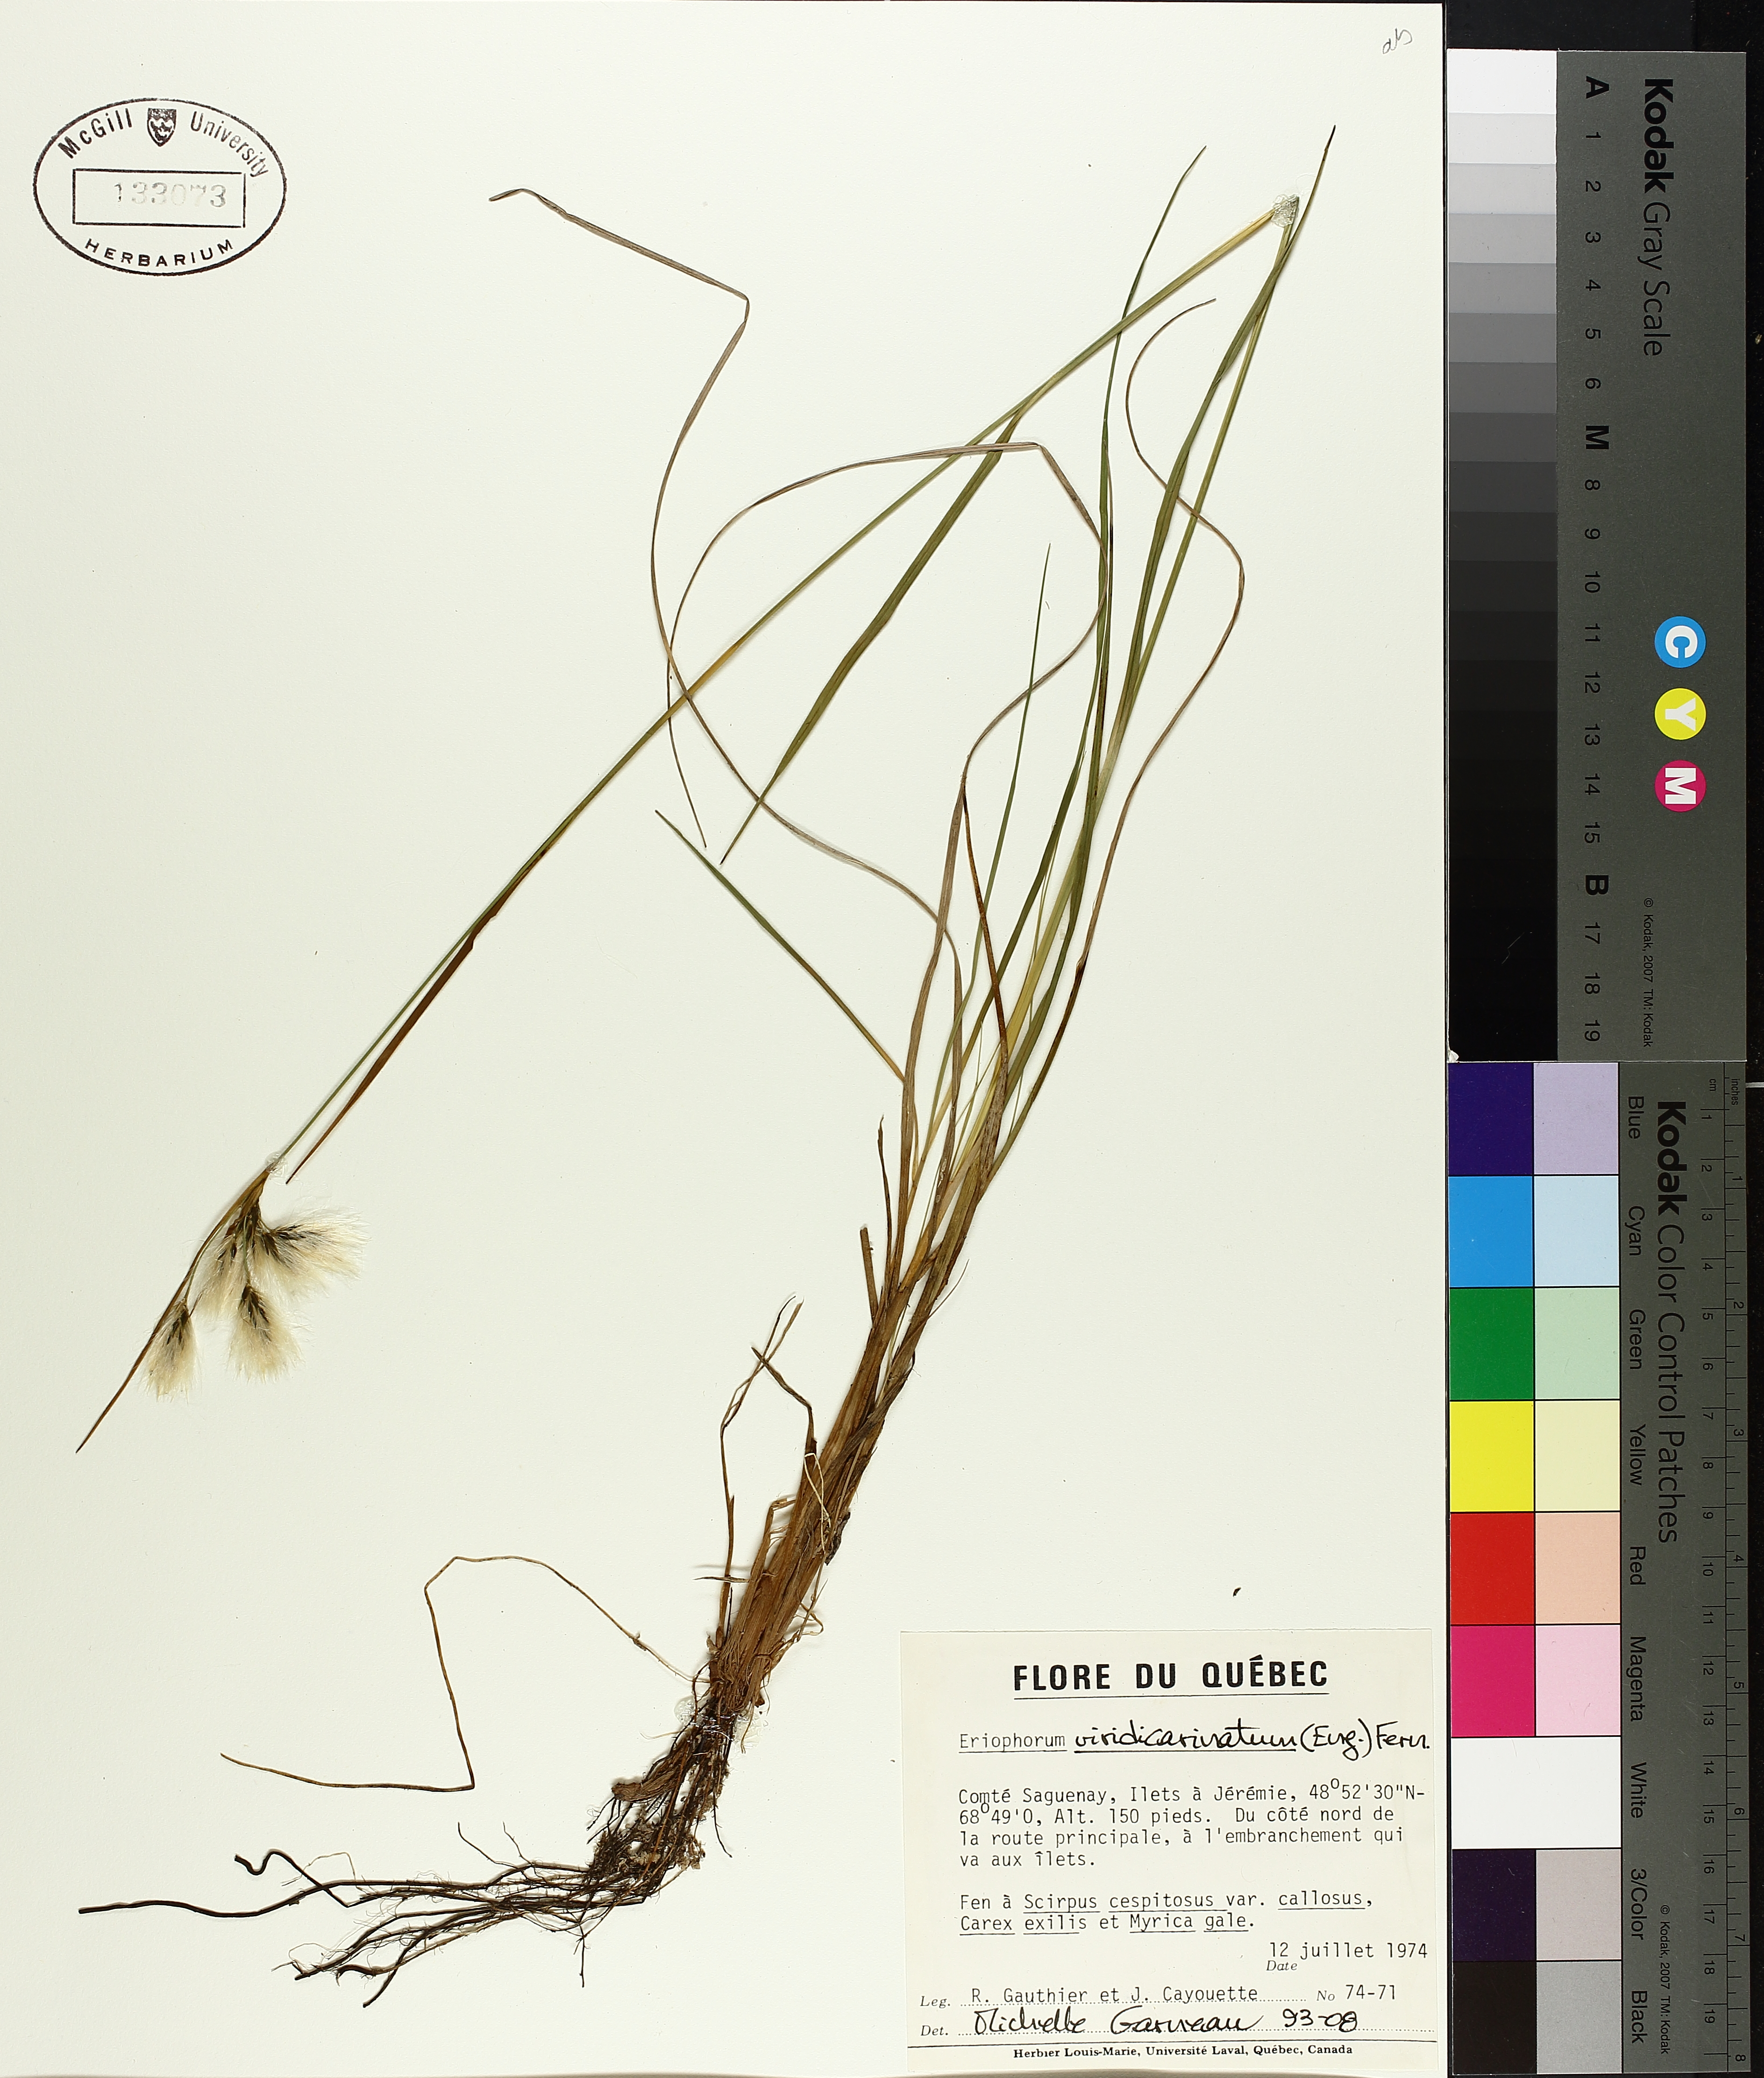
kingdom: Plantae
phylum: Tracheophyta
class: Liliopsida
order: Poales
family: Cyperaceae
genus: Eriophorum
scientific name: Eriophorum viridicarinatum
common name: Green-keeled cottongrass
